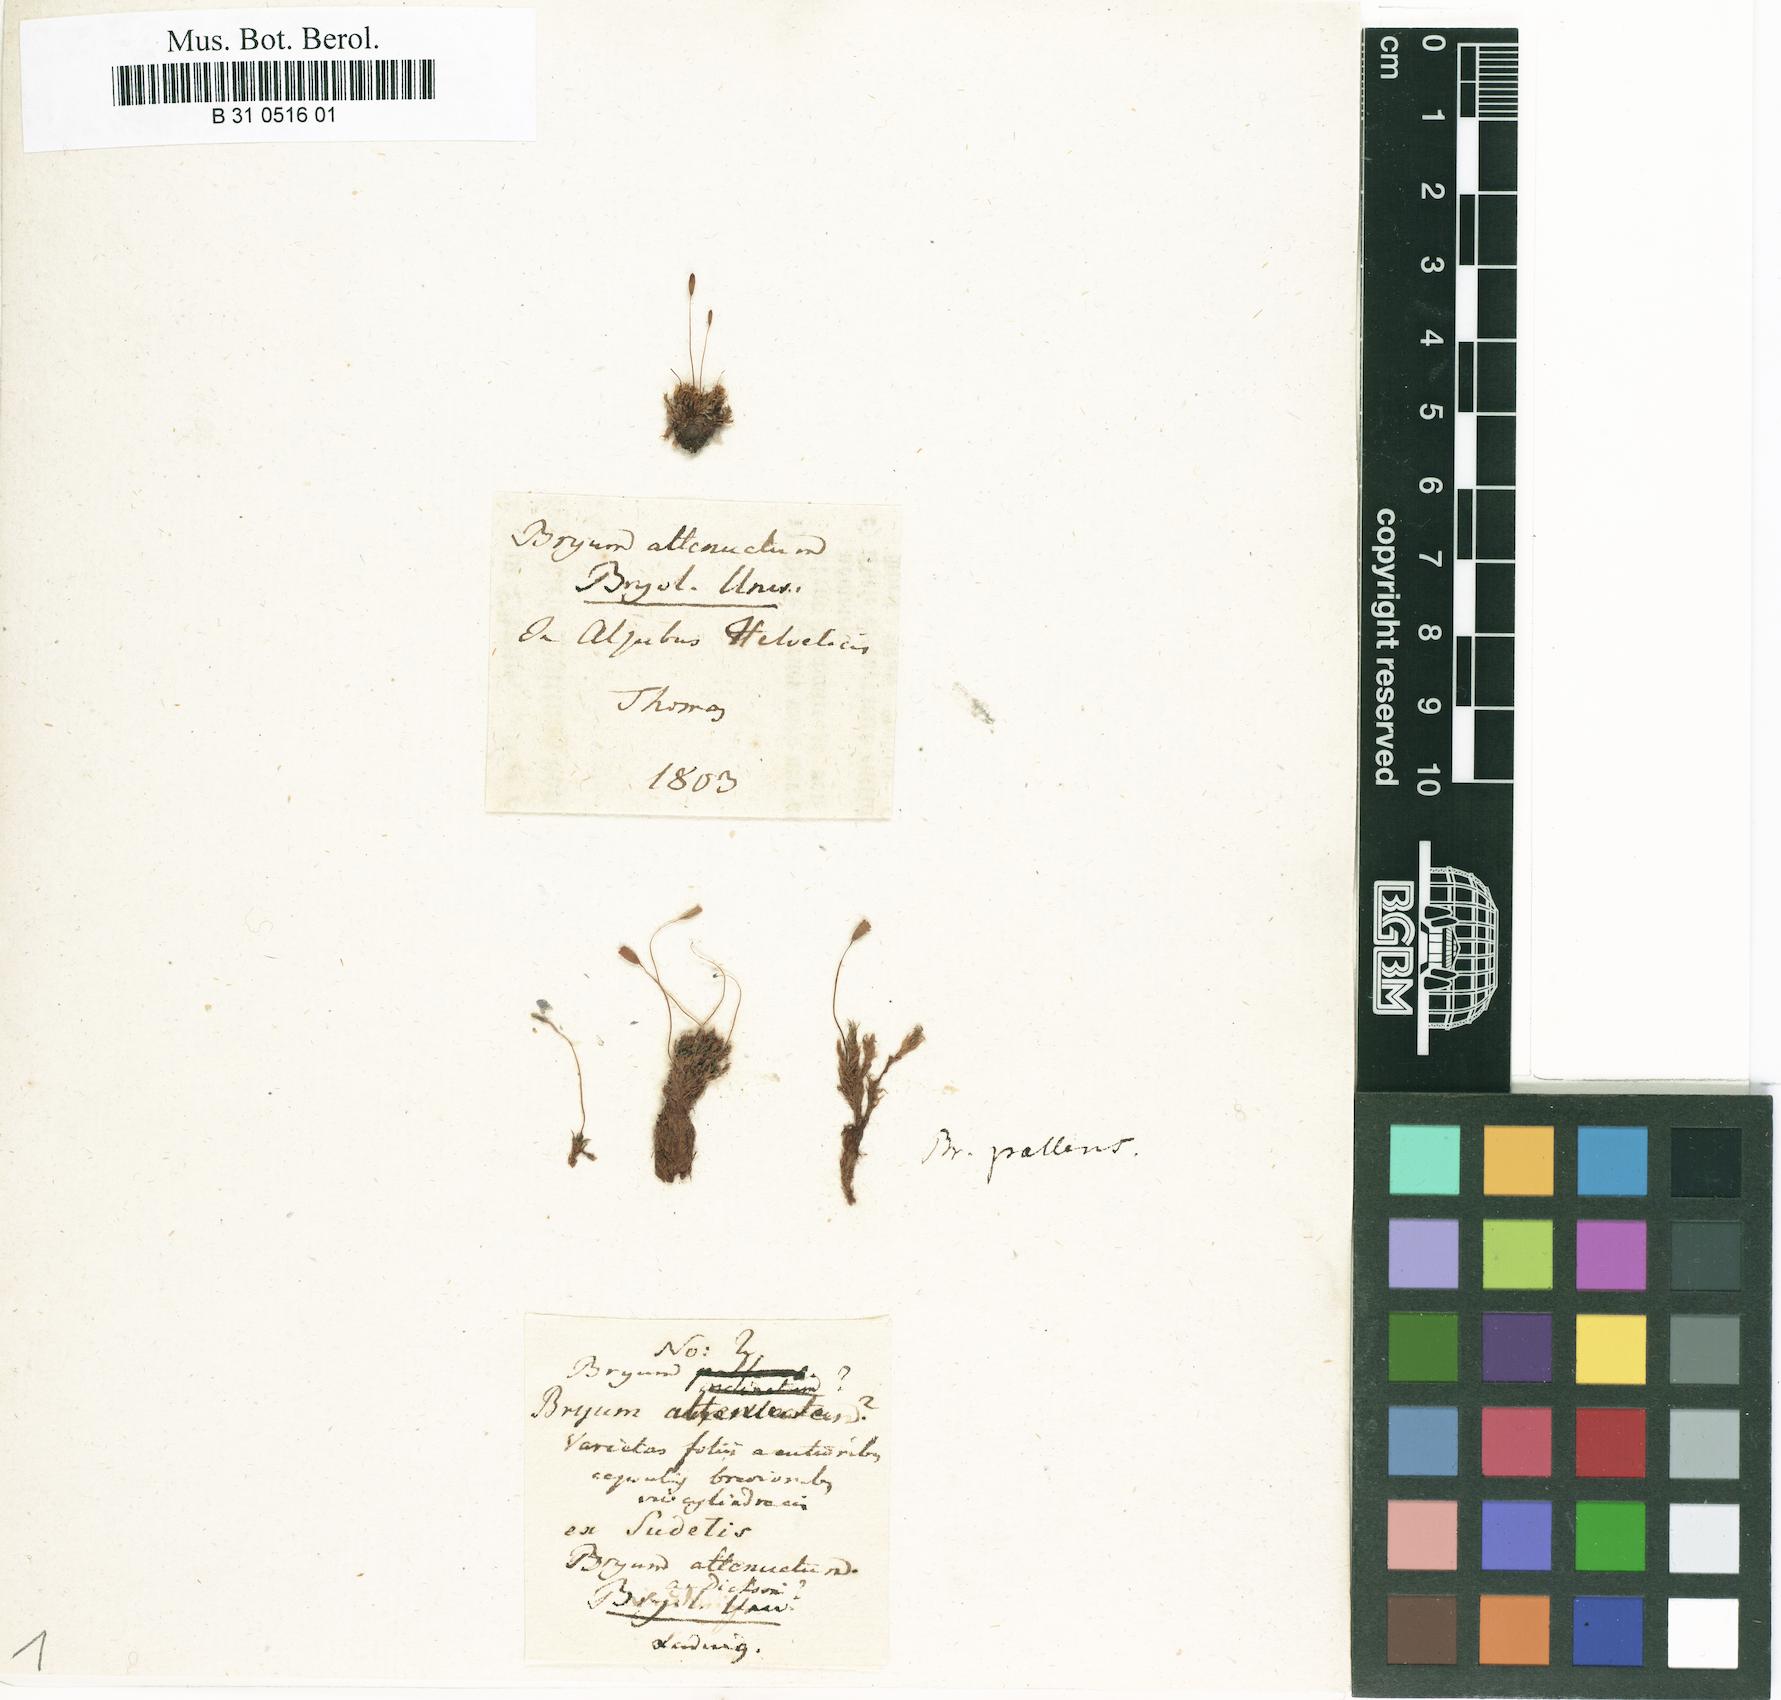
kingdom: Plantae
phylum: Bryophyta
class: Bryopsida
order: Funariales
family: Funariaceae
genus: Entosthodon
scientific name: Entosthodon attenuatus
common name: Thin cord-moss
